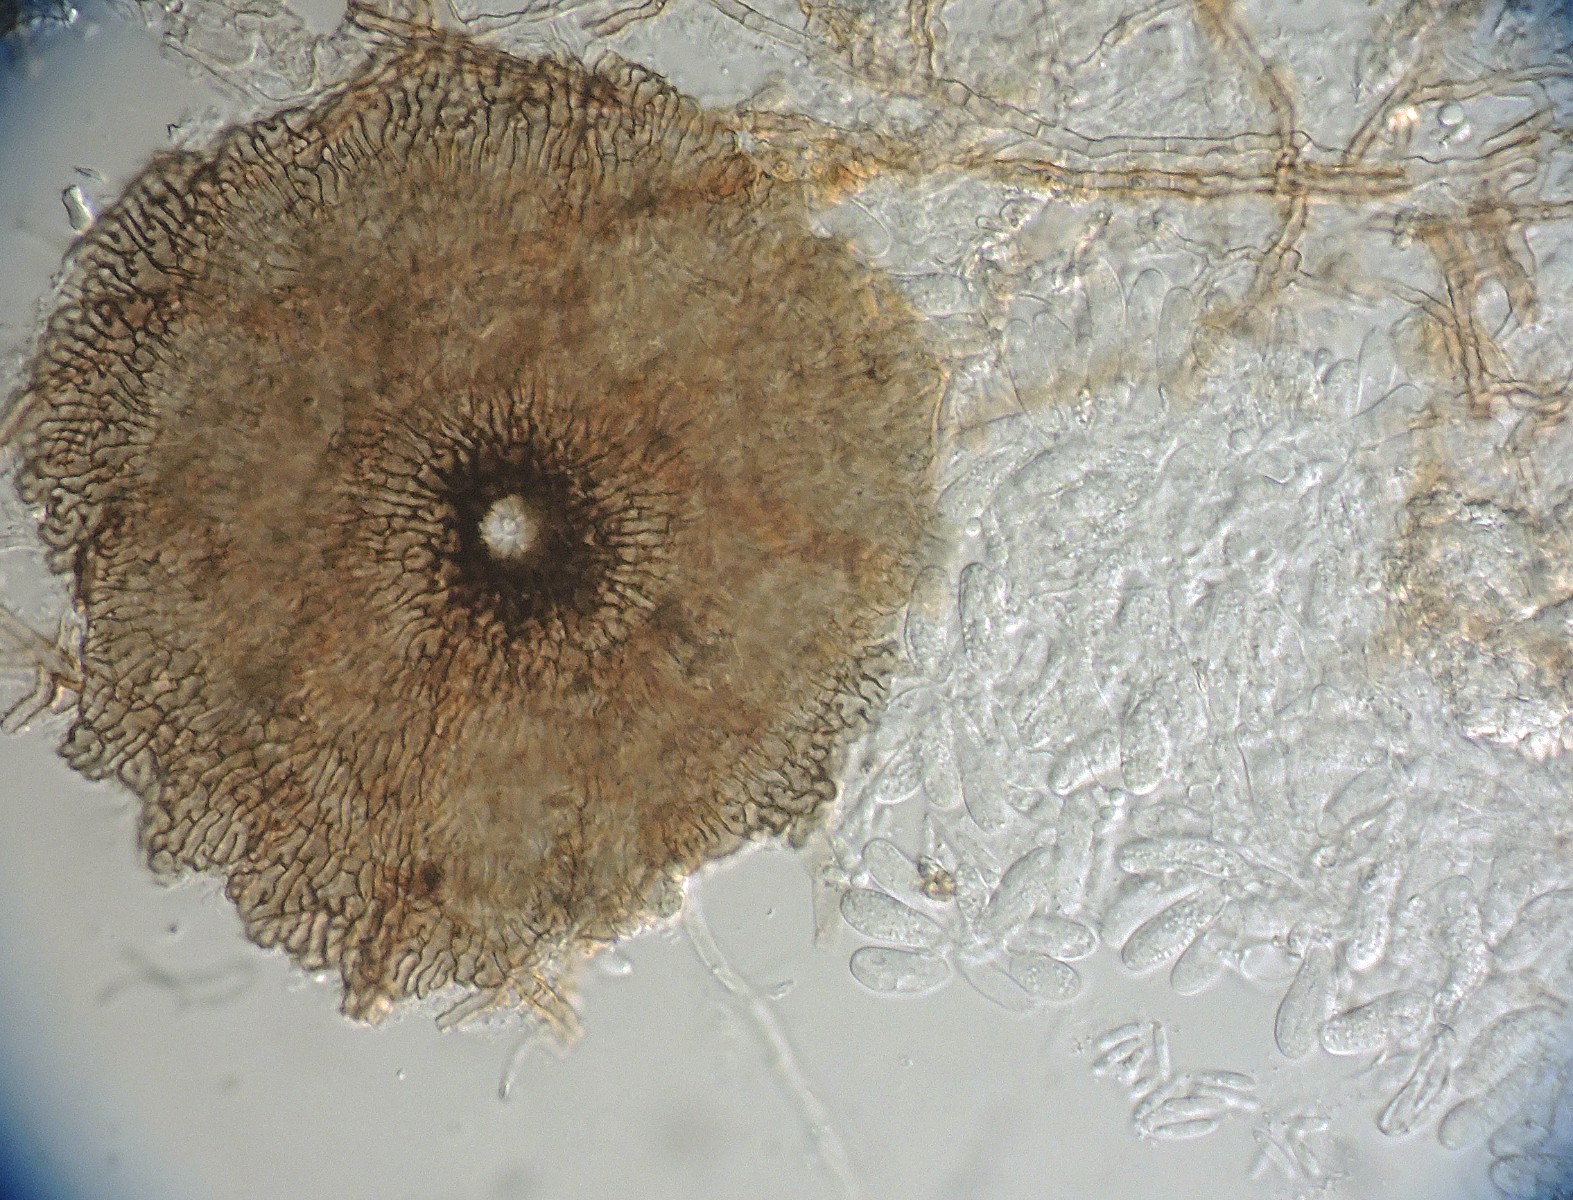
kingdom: Fungi
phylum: Ascomycota
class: Dothideomycetes
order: Microthyriales
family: Micropeltidaceae
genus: Stomiopeltis
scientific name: Stomiopeltis pinastri
